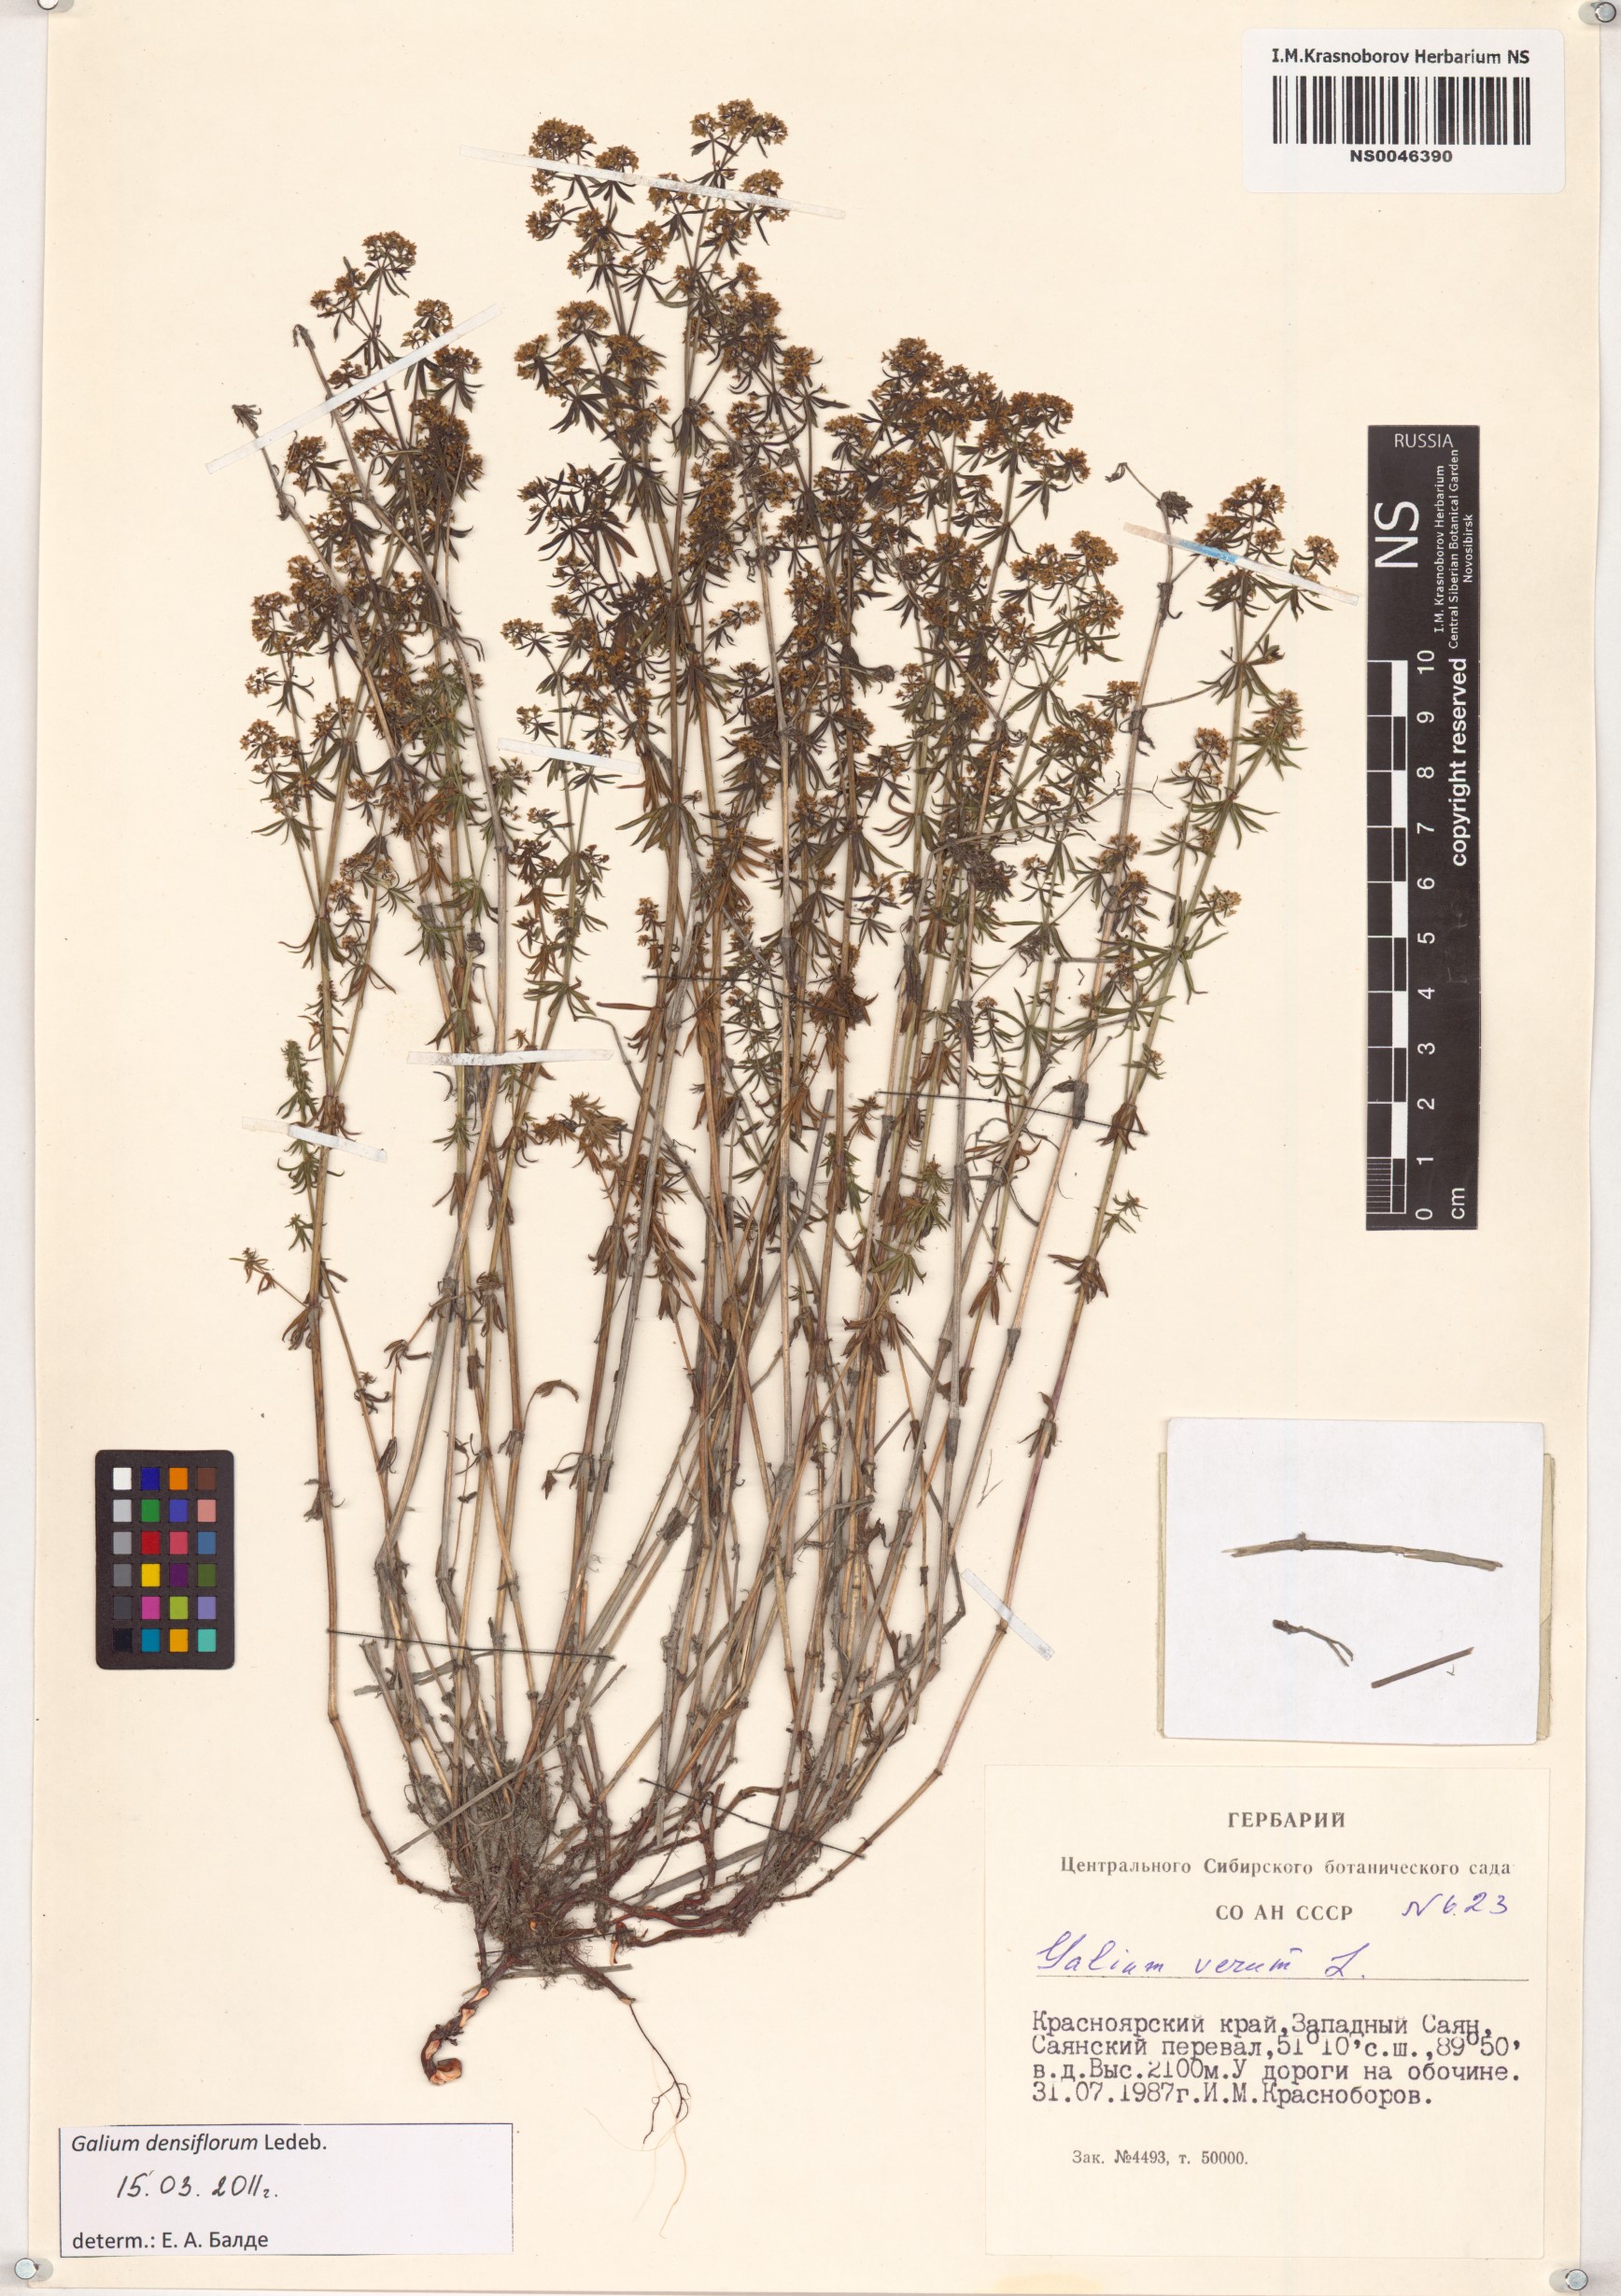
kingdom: Plantae
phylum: Tracheophyta
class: Magnoliopsida
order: Gentianales
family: Rubiaceae
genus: Galium
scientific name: Galium densiflorum
